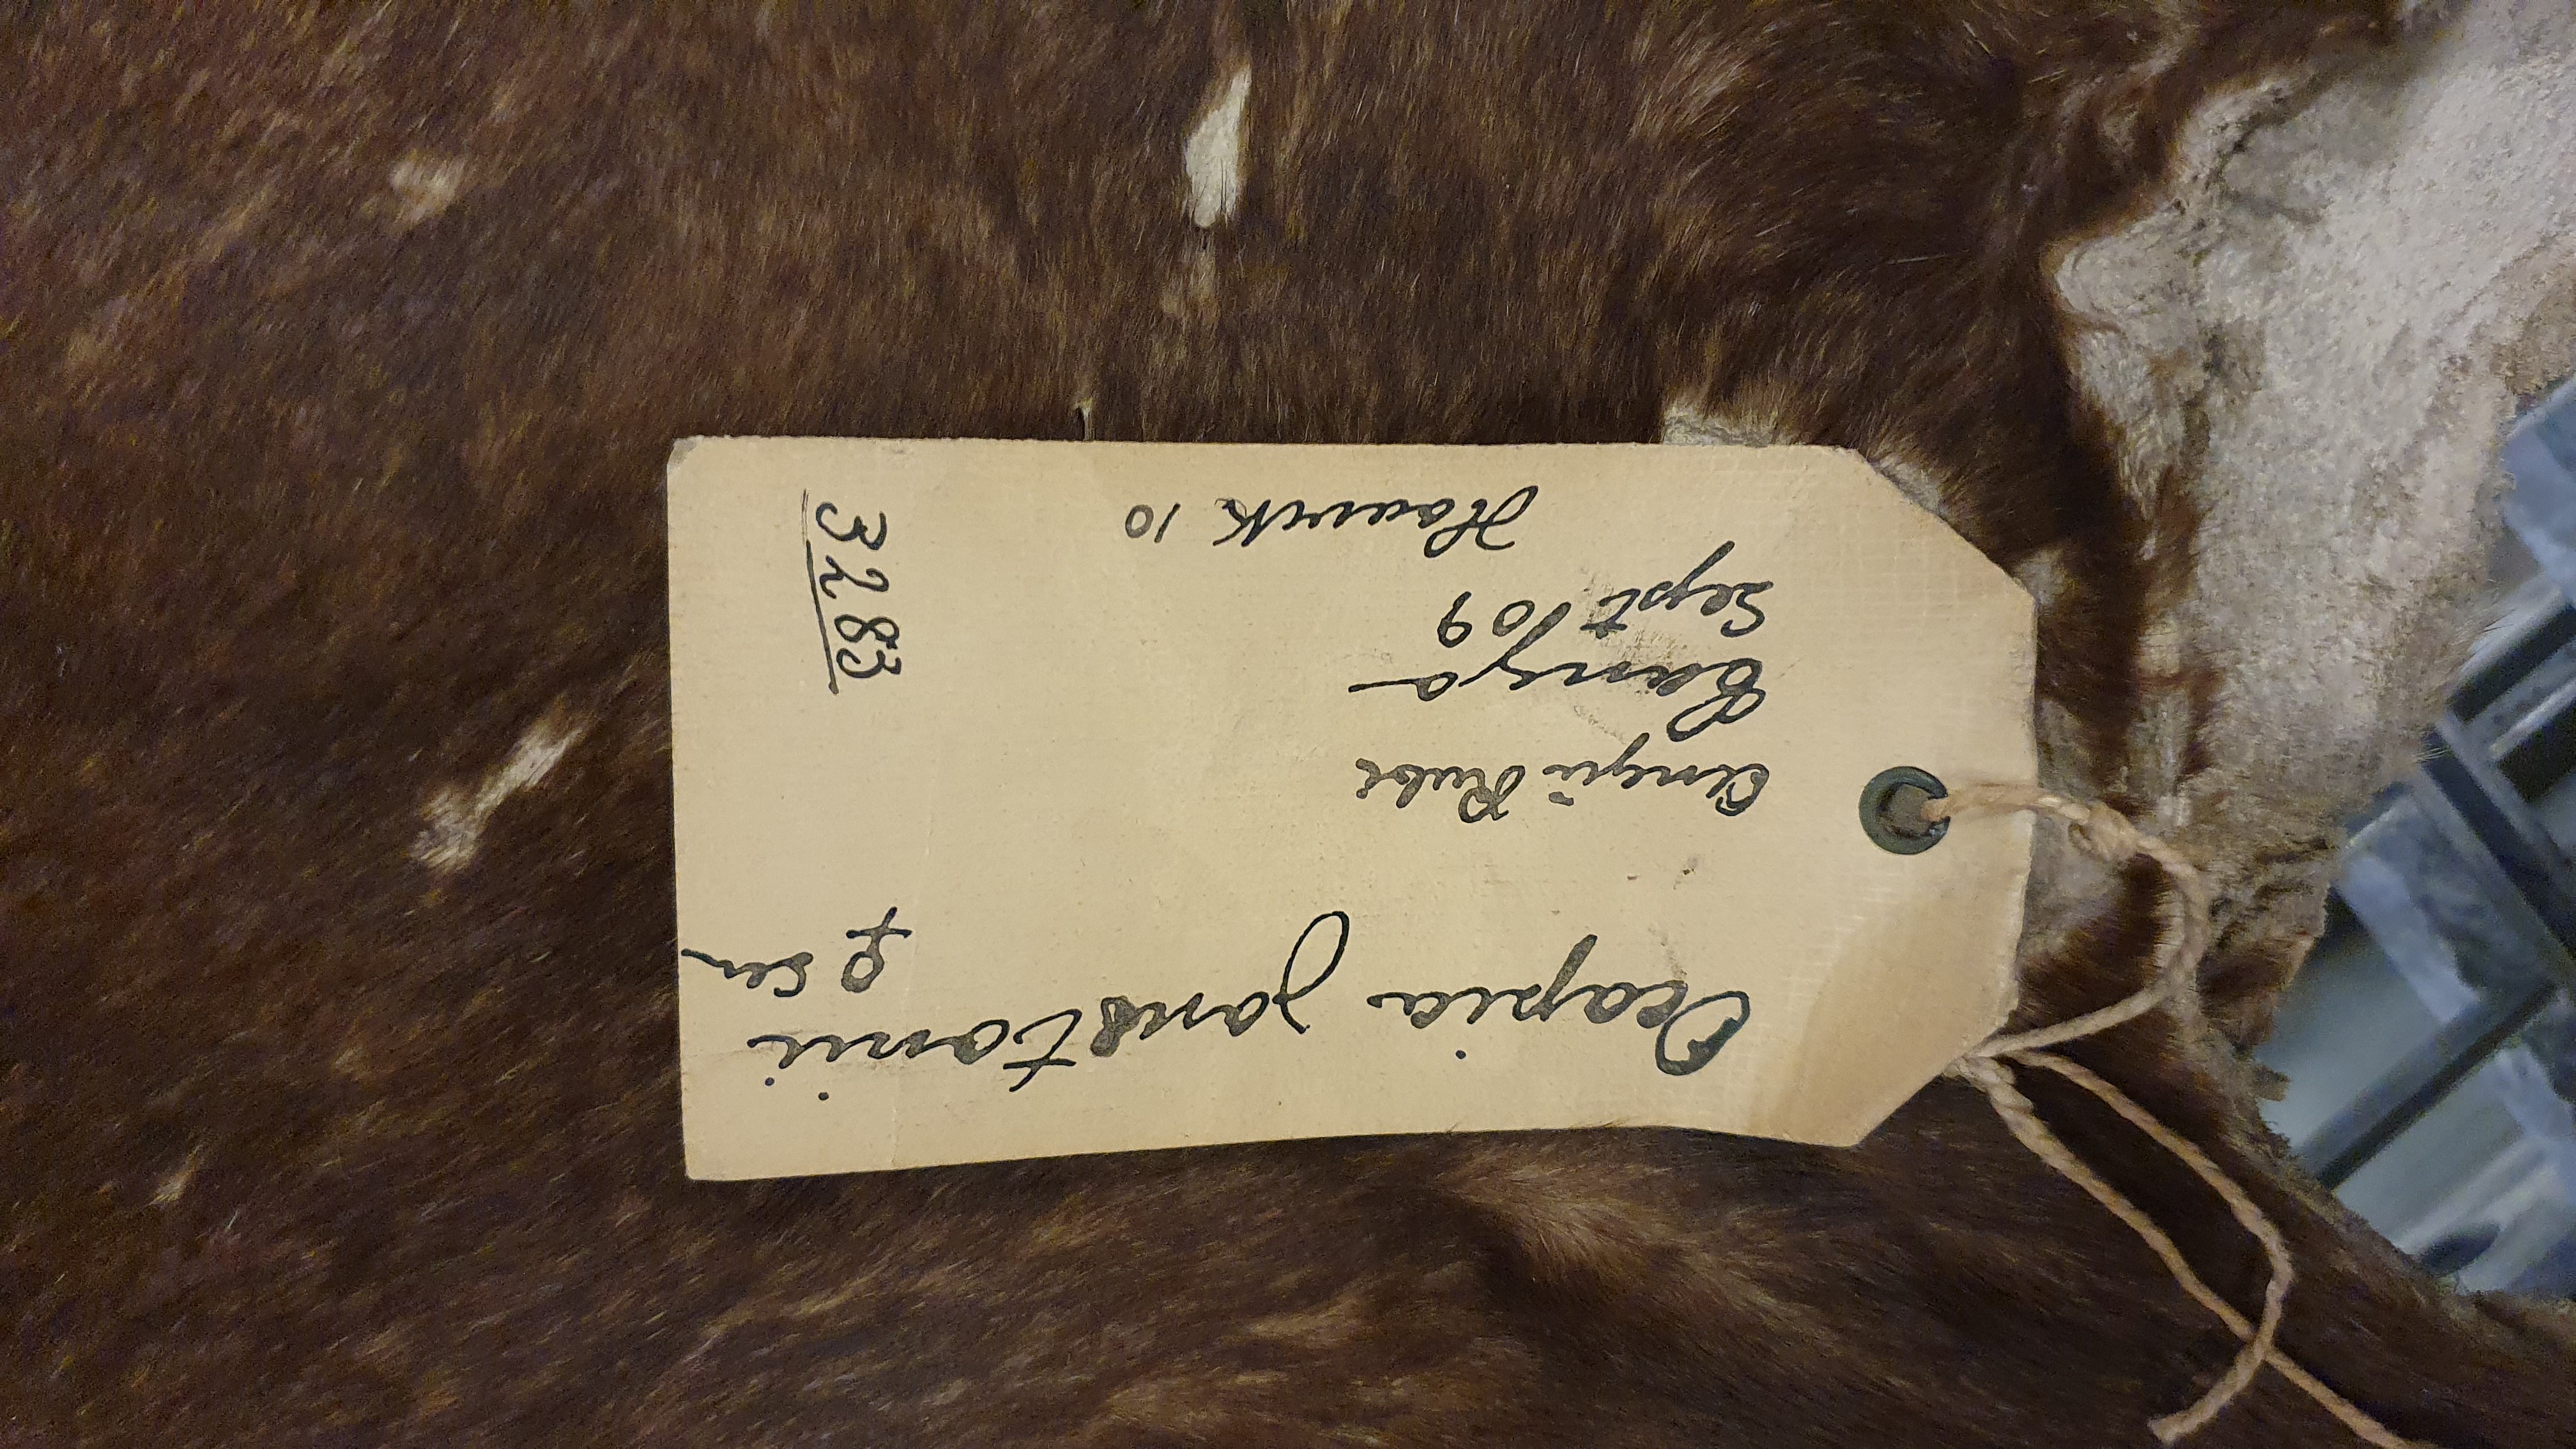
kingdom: Animalia
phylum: Chordata
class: Mammalia
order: Artiodactyla
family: Giraffidae
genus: Okapia
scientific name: Okapia johnstoni
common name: Okapi
